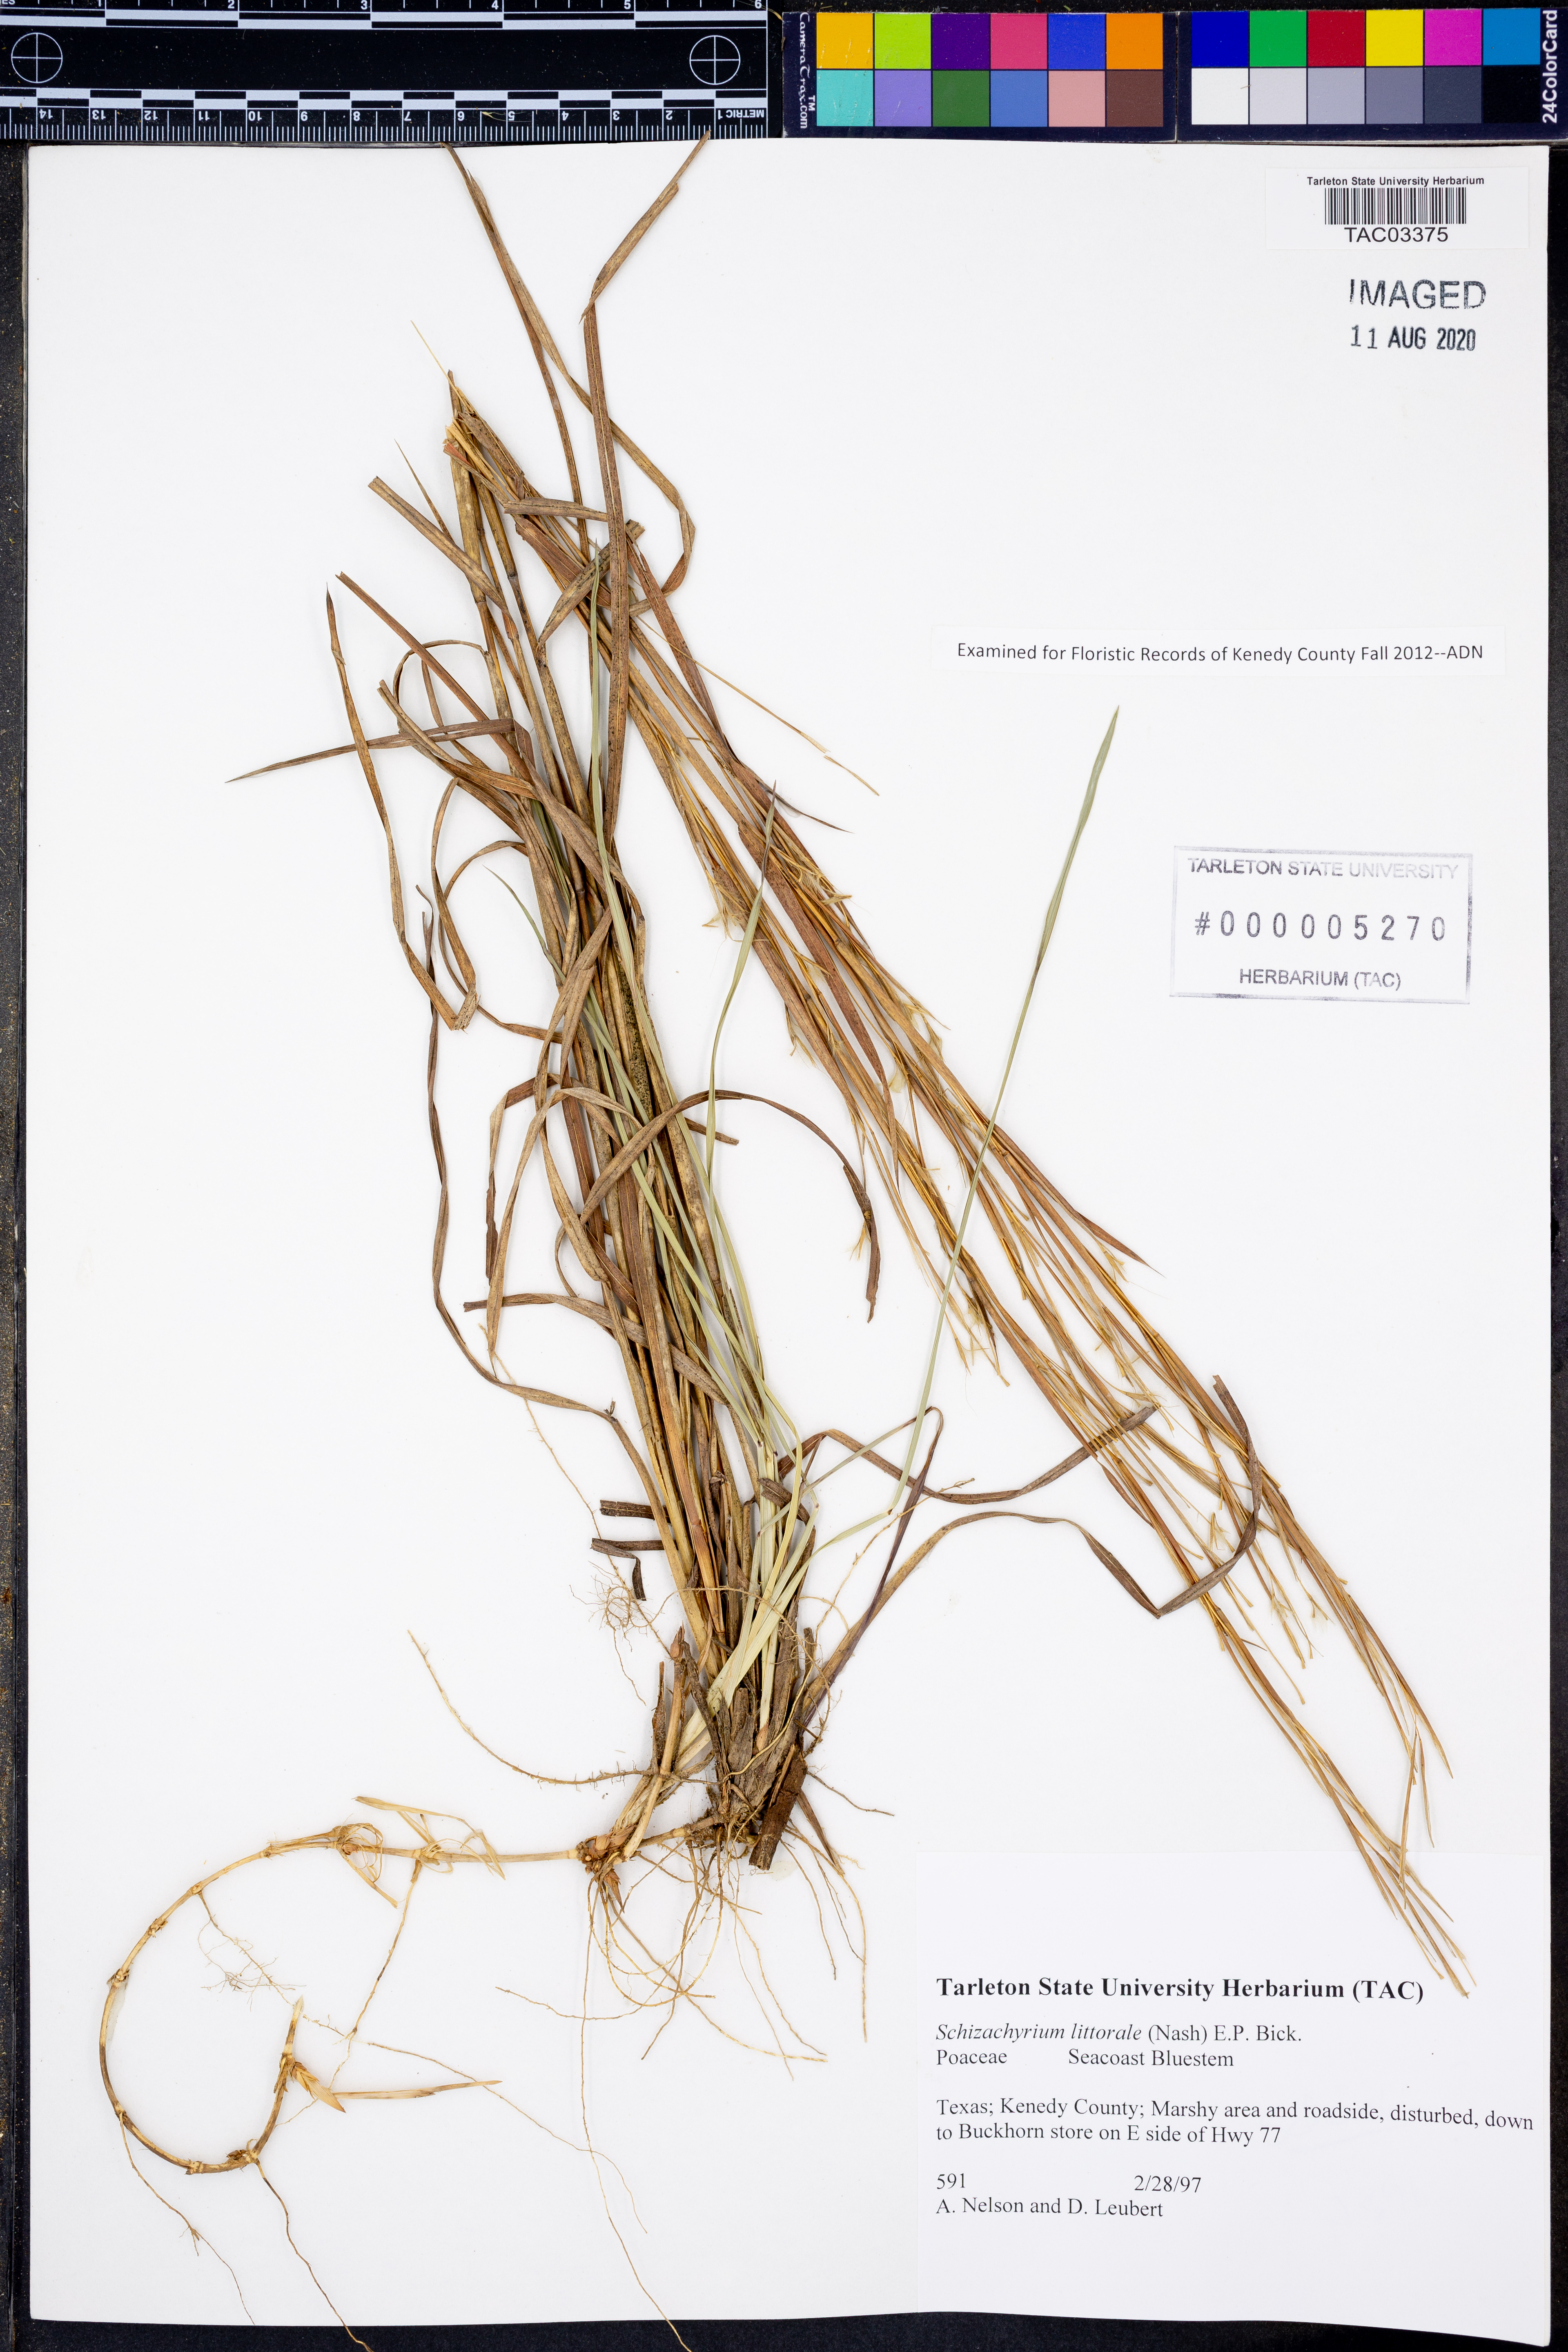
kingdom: Plantae
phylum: Tracheophyta
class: Liliopsida
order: Poales
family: Poaceae
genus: Schizachyrium
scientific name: Schizachyrium scoparium
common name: Little bluestem
